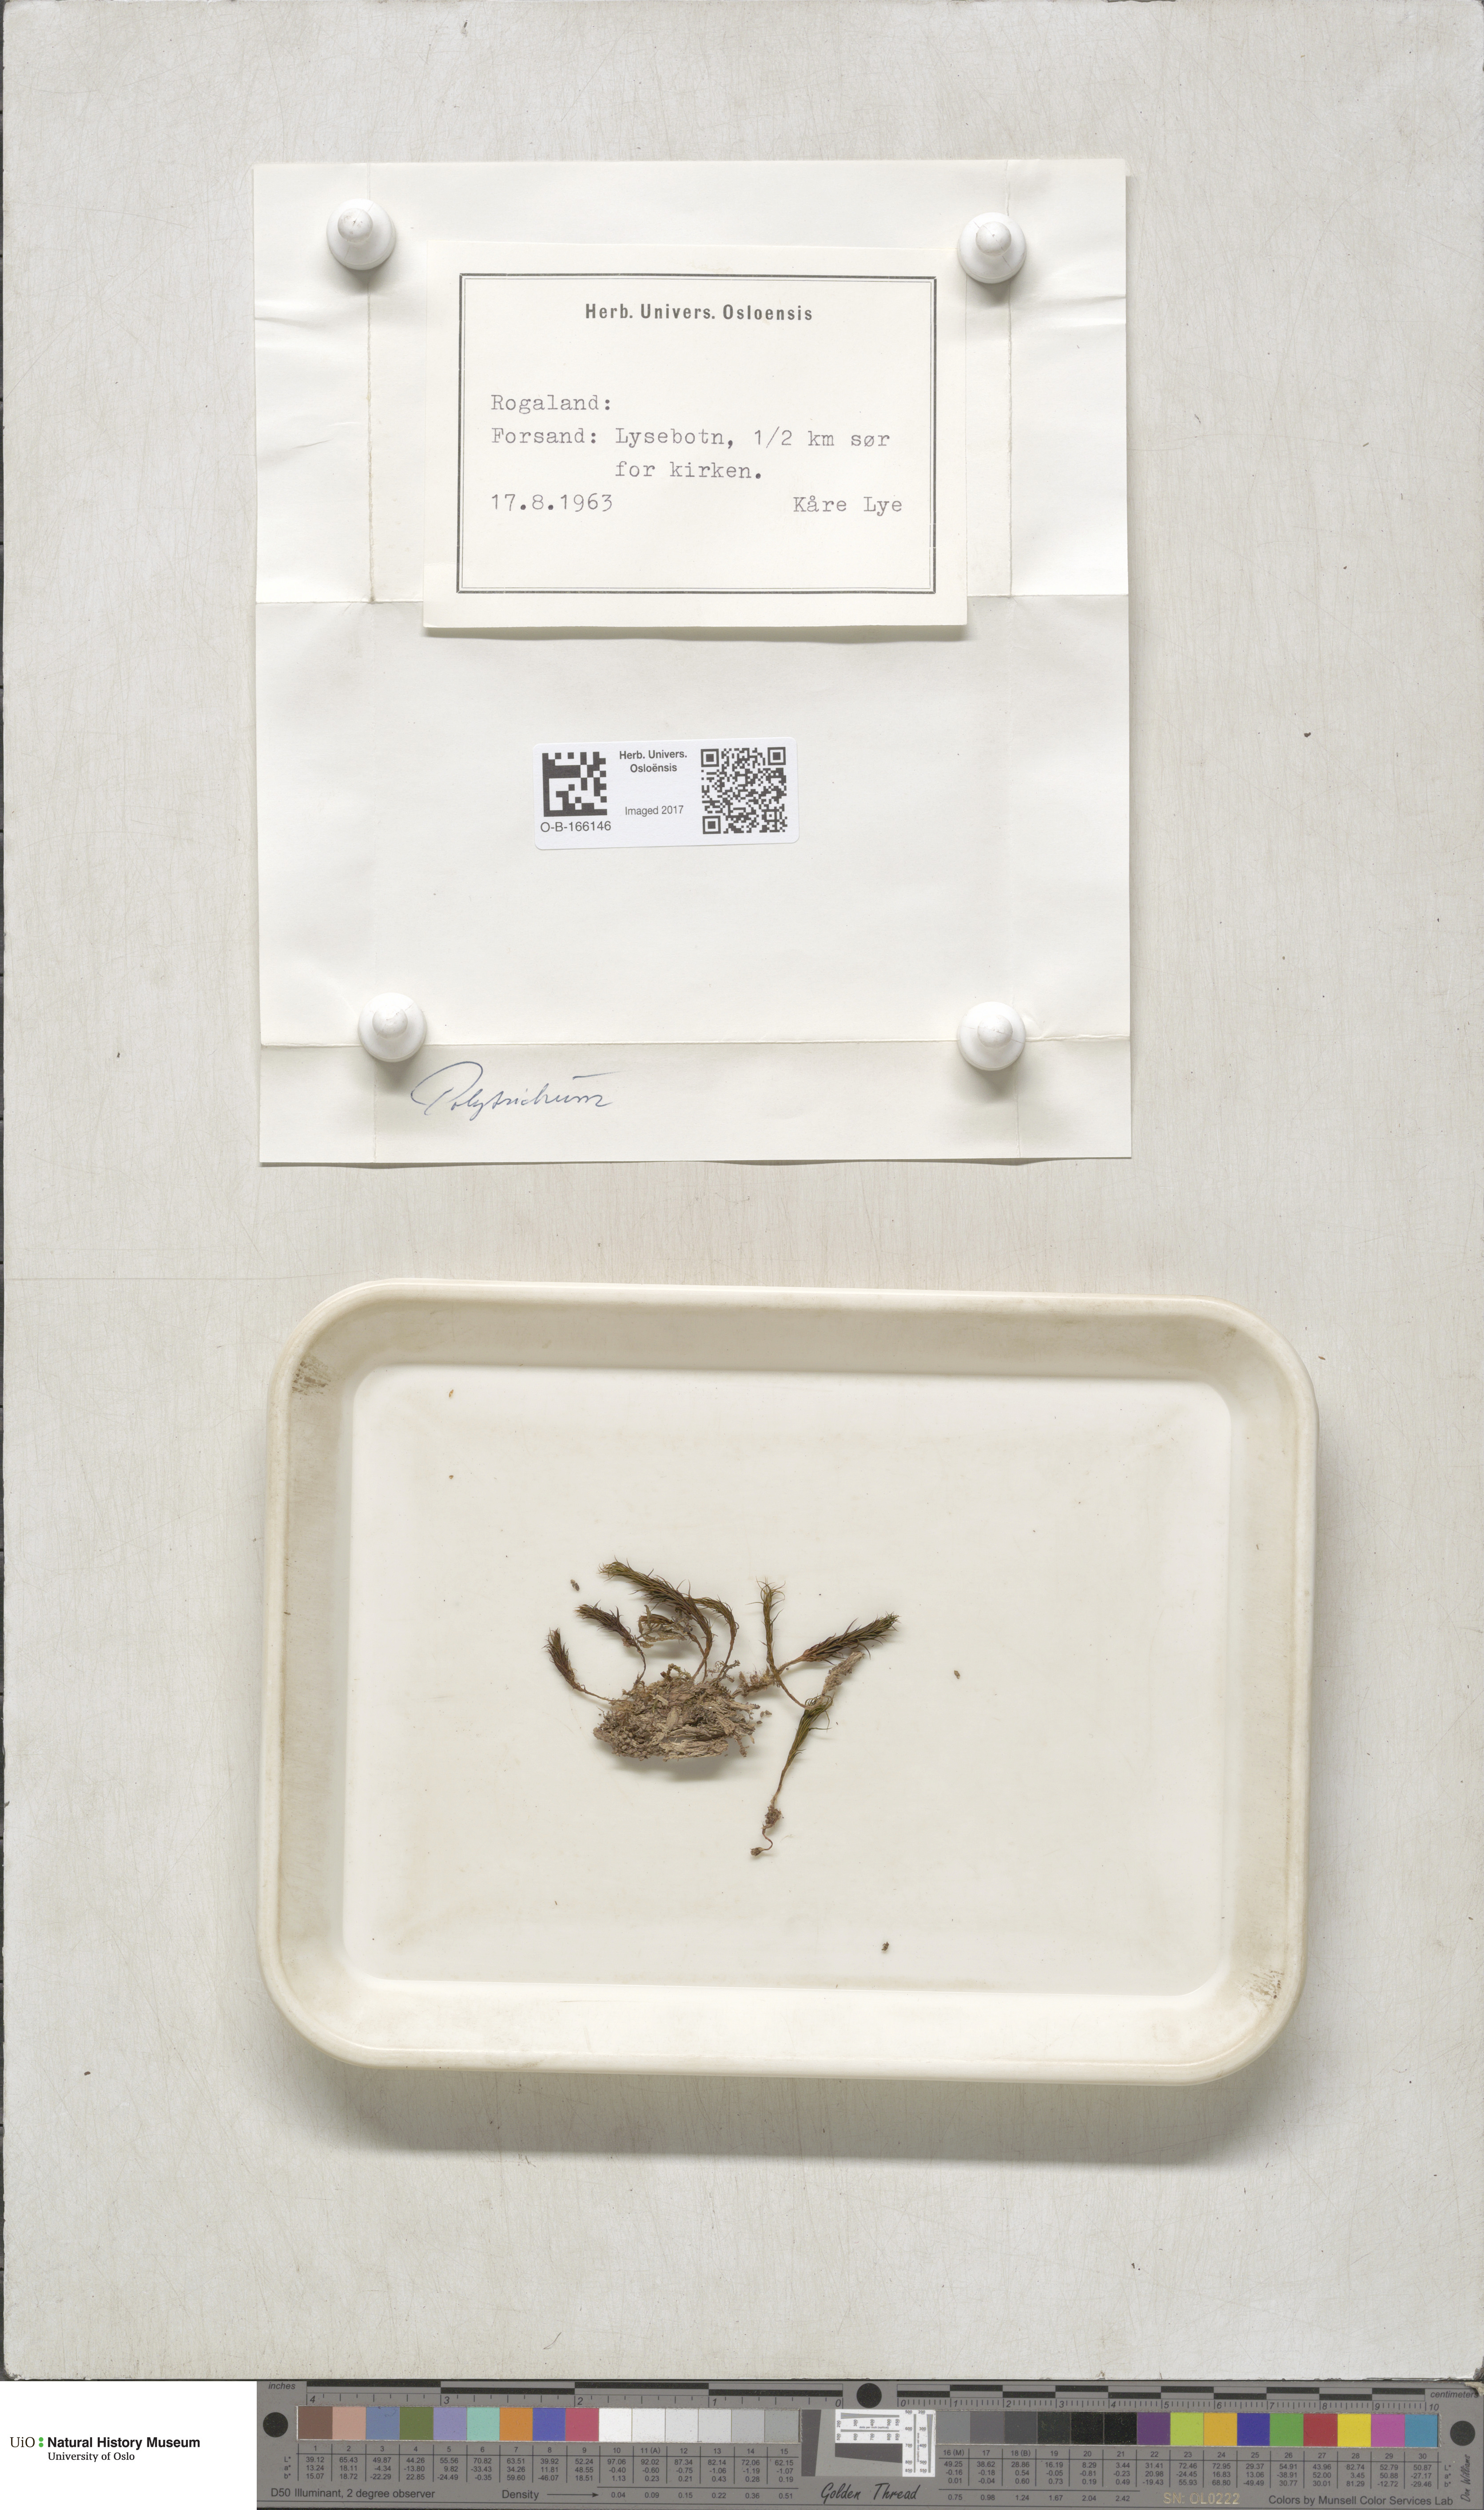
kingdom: Plantae
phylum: Bryophyta
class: Polytrichopsida
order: Polytrichales
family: Polytrichaceae
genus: Polytrichum
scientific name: Polytrichum
